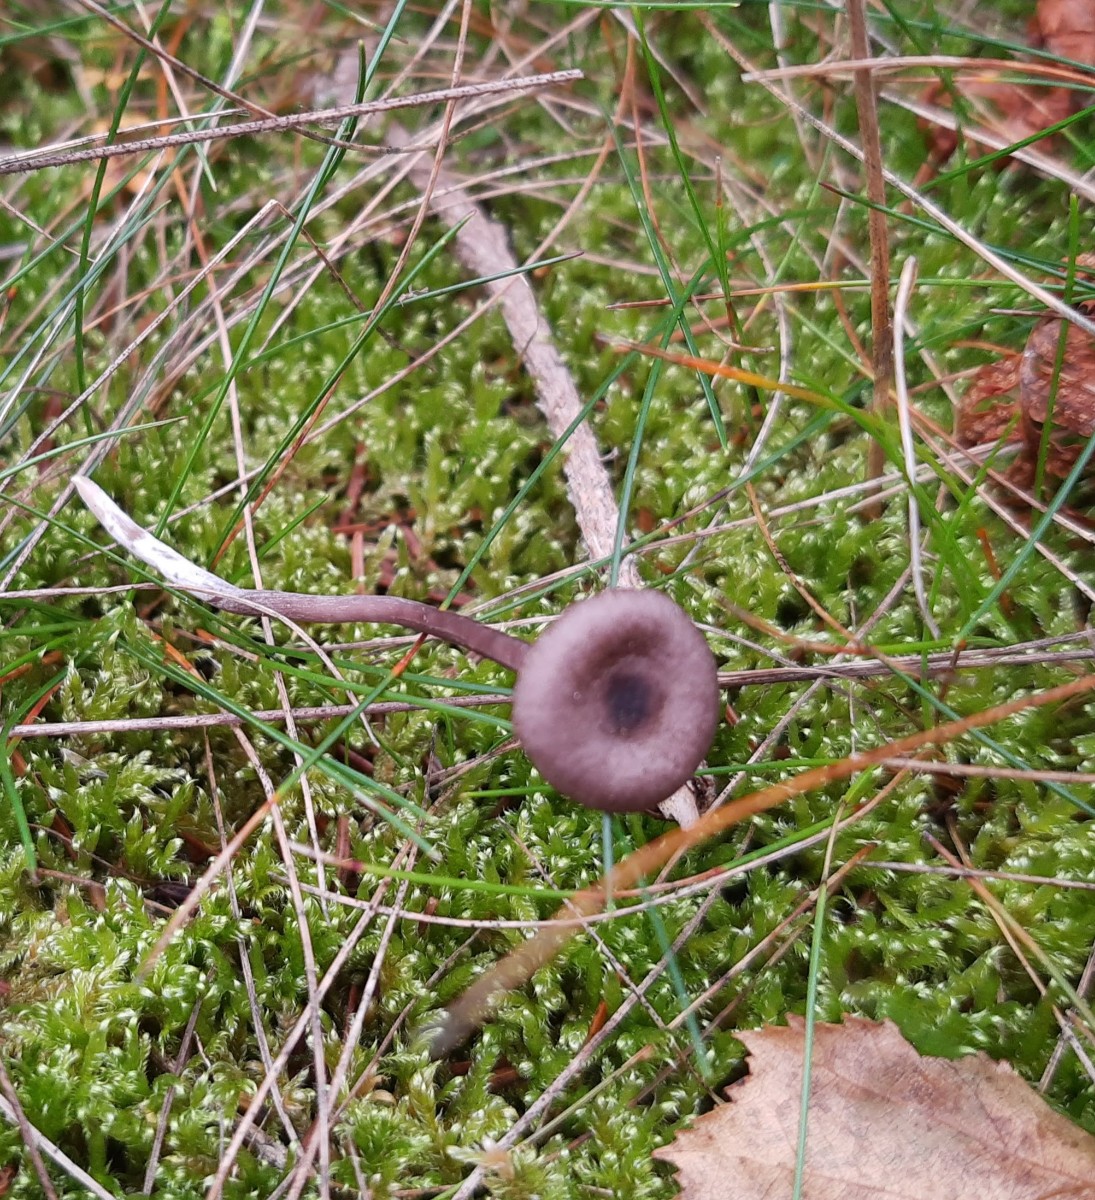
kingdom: Fungi
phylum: Basidiomycota
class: Agaricomycetes
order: Agaricales
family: Hydnangiaceae
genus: Laccaria
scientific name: Laccaria amethystina
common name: violet ametysthat
